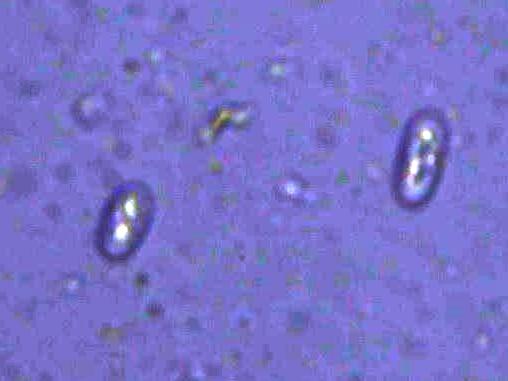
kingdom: Fungi
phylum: Ascomycota
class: Lecanoromycetes
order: Teloschistales
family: Teloschistaceae
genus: Athallia
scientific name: Athallia cerinelloides
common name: citrongul orangelav
